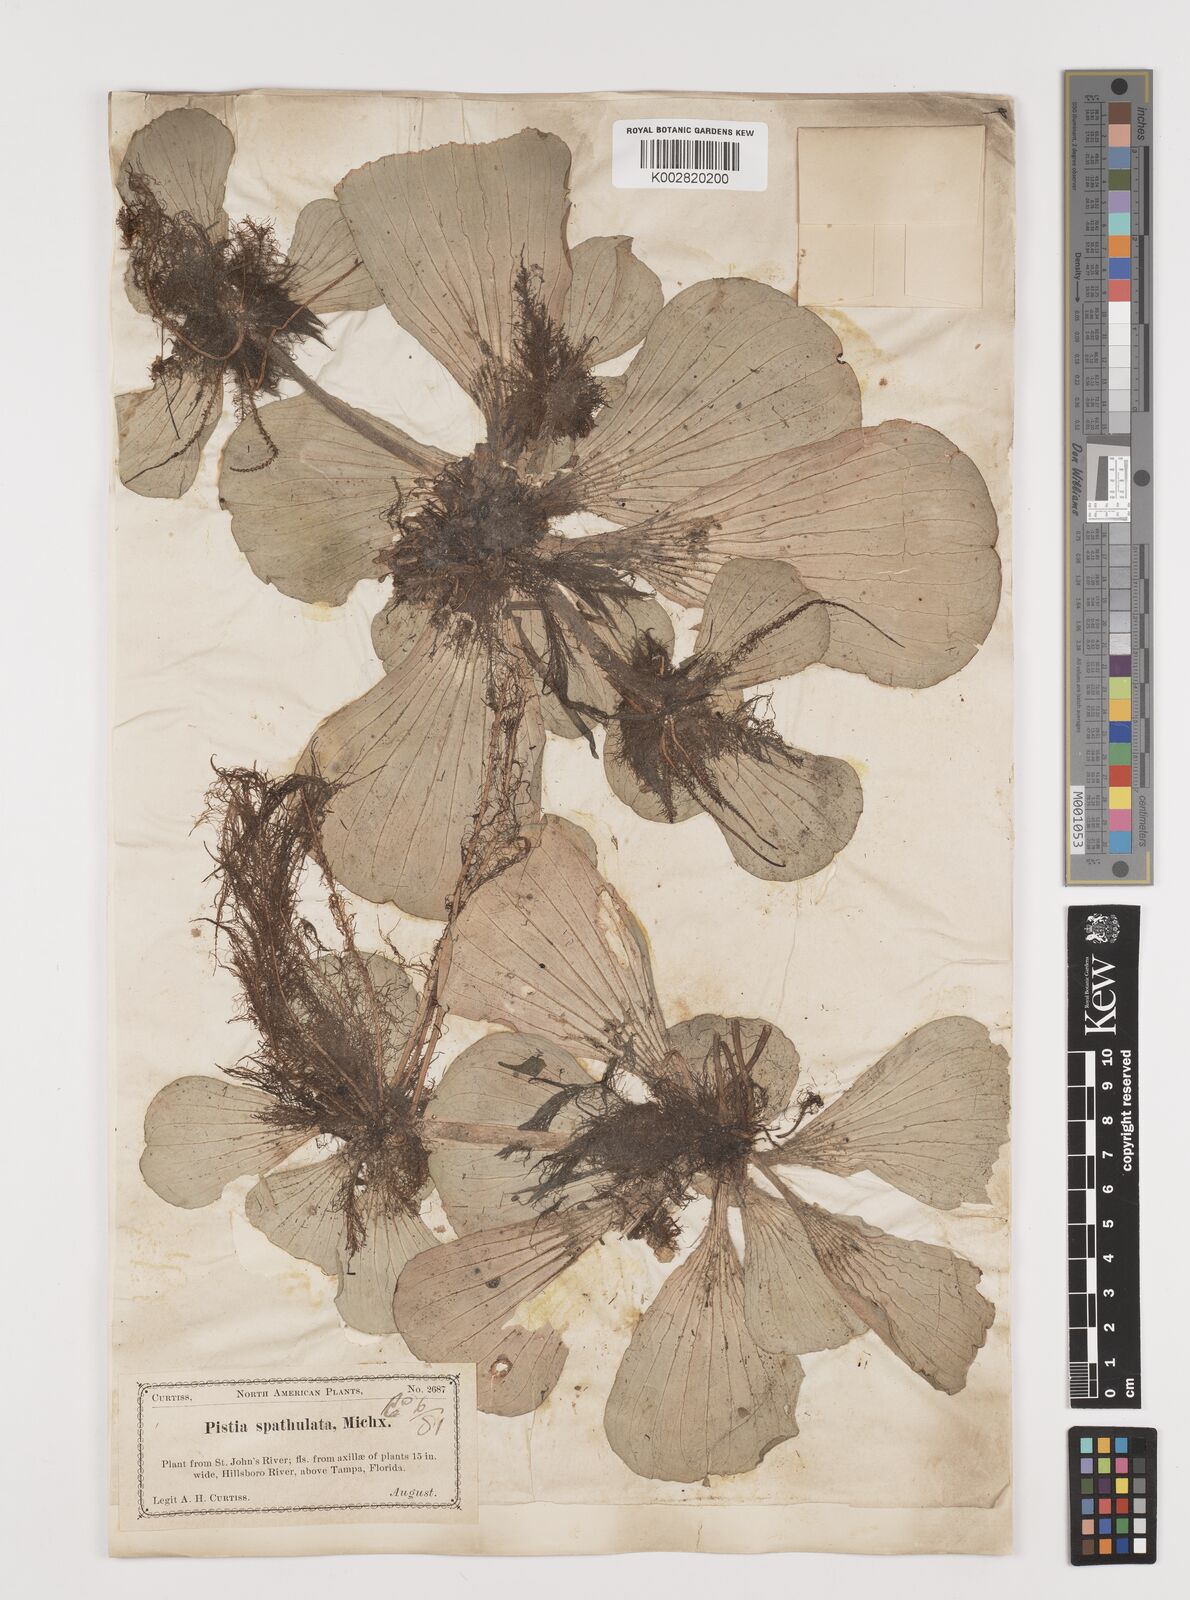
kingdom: Plantae
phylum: Tracheophyta
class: Liliopsida
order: Alismatales
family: Araceae
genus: Pistia
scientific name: Pistia stratiotes
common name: Water lettuce
